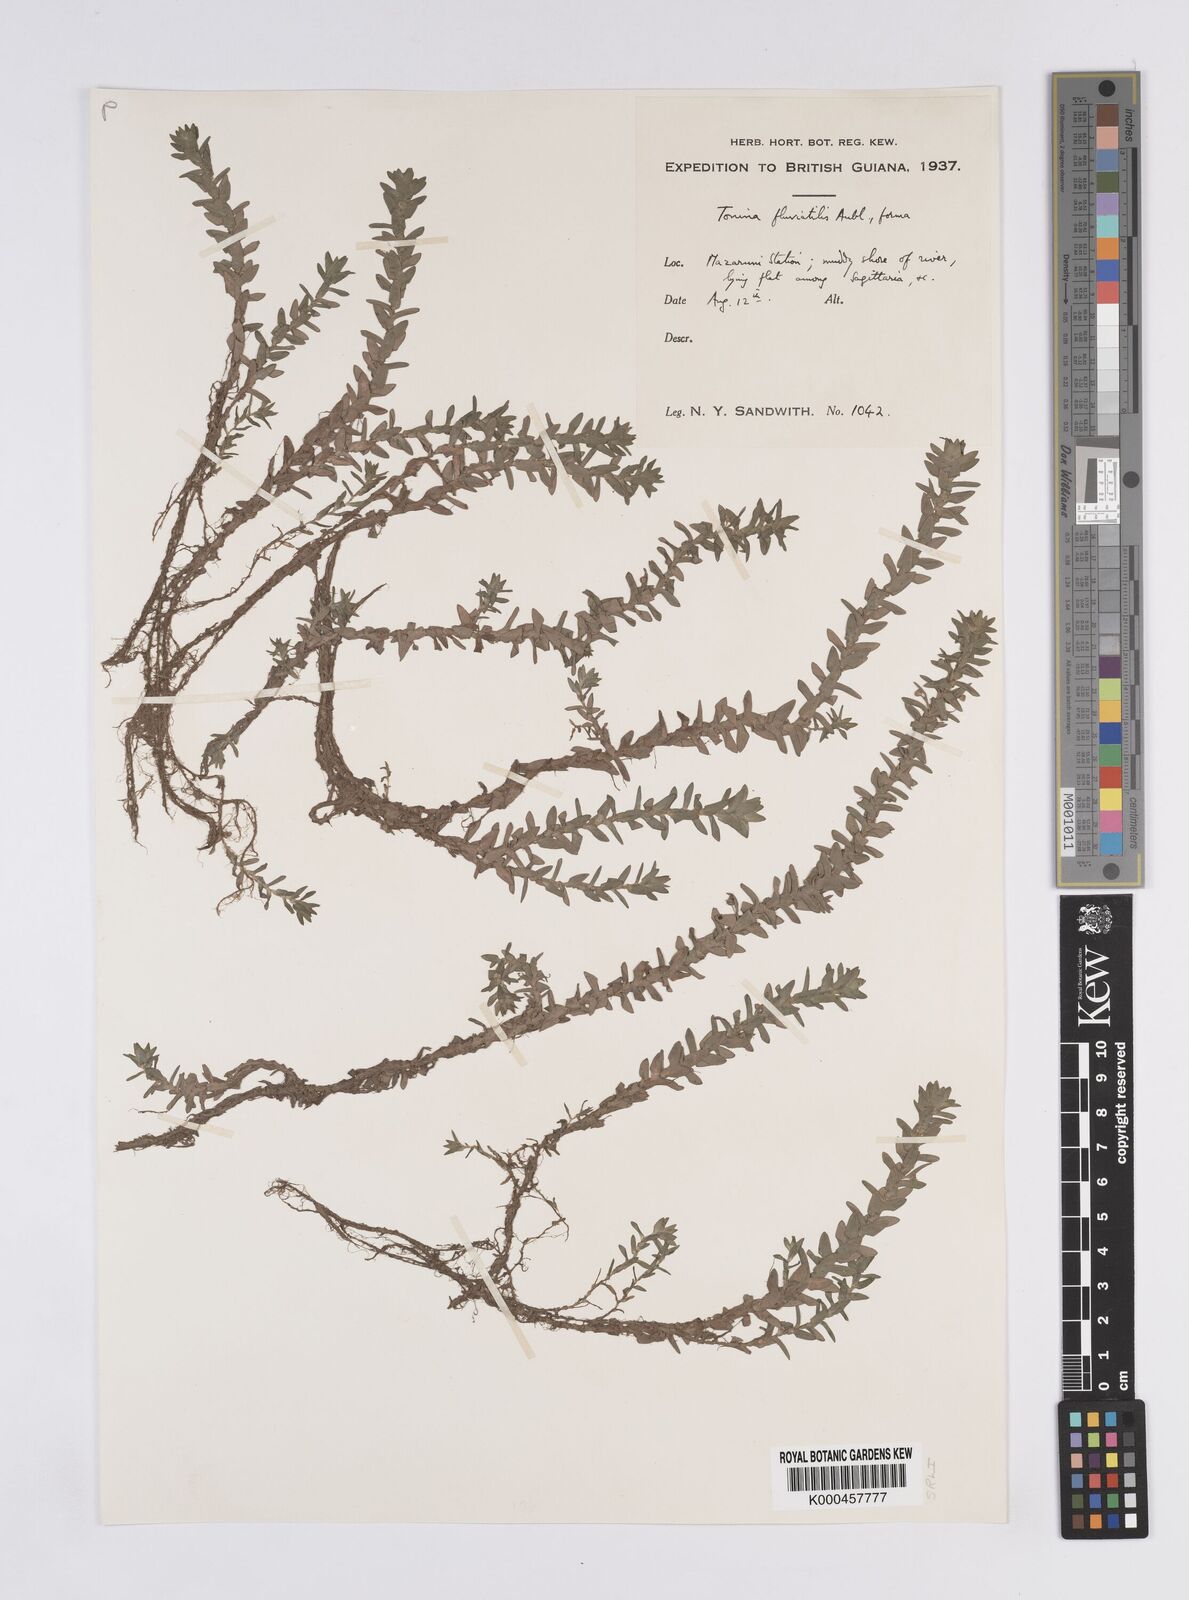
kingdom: Plantae
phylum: Tracheophyta
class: Liliopsida
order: Poales
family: Eriocaulaceae
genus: Paepalanthus
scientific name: Paepalanthus fluviatilis
